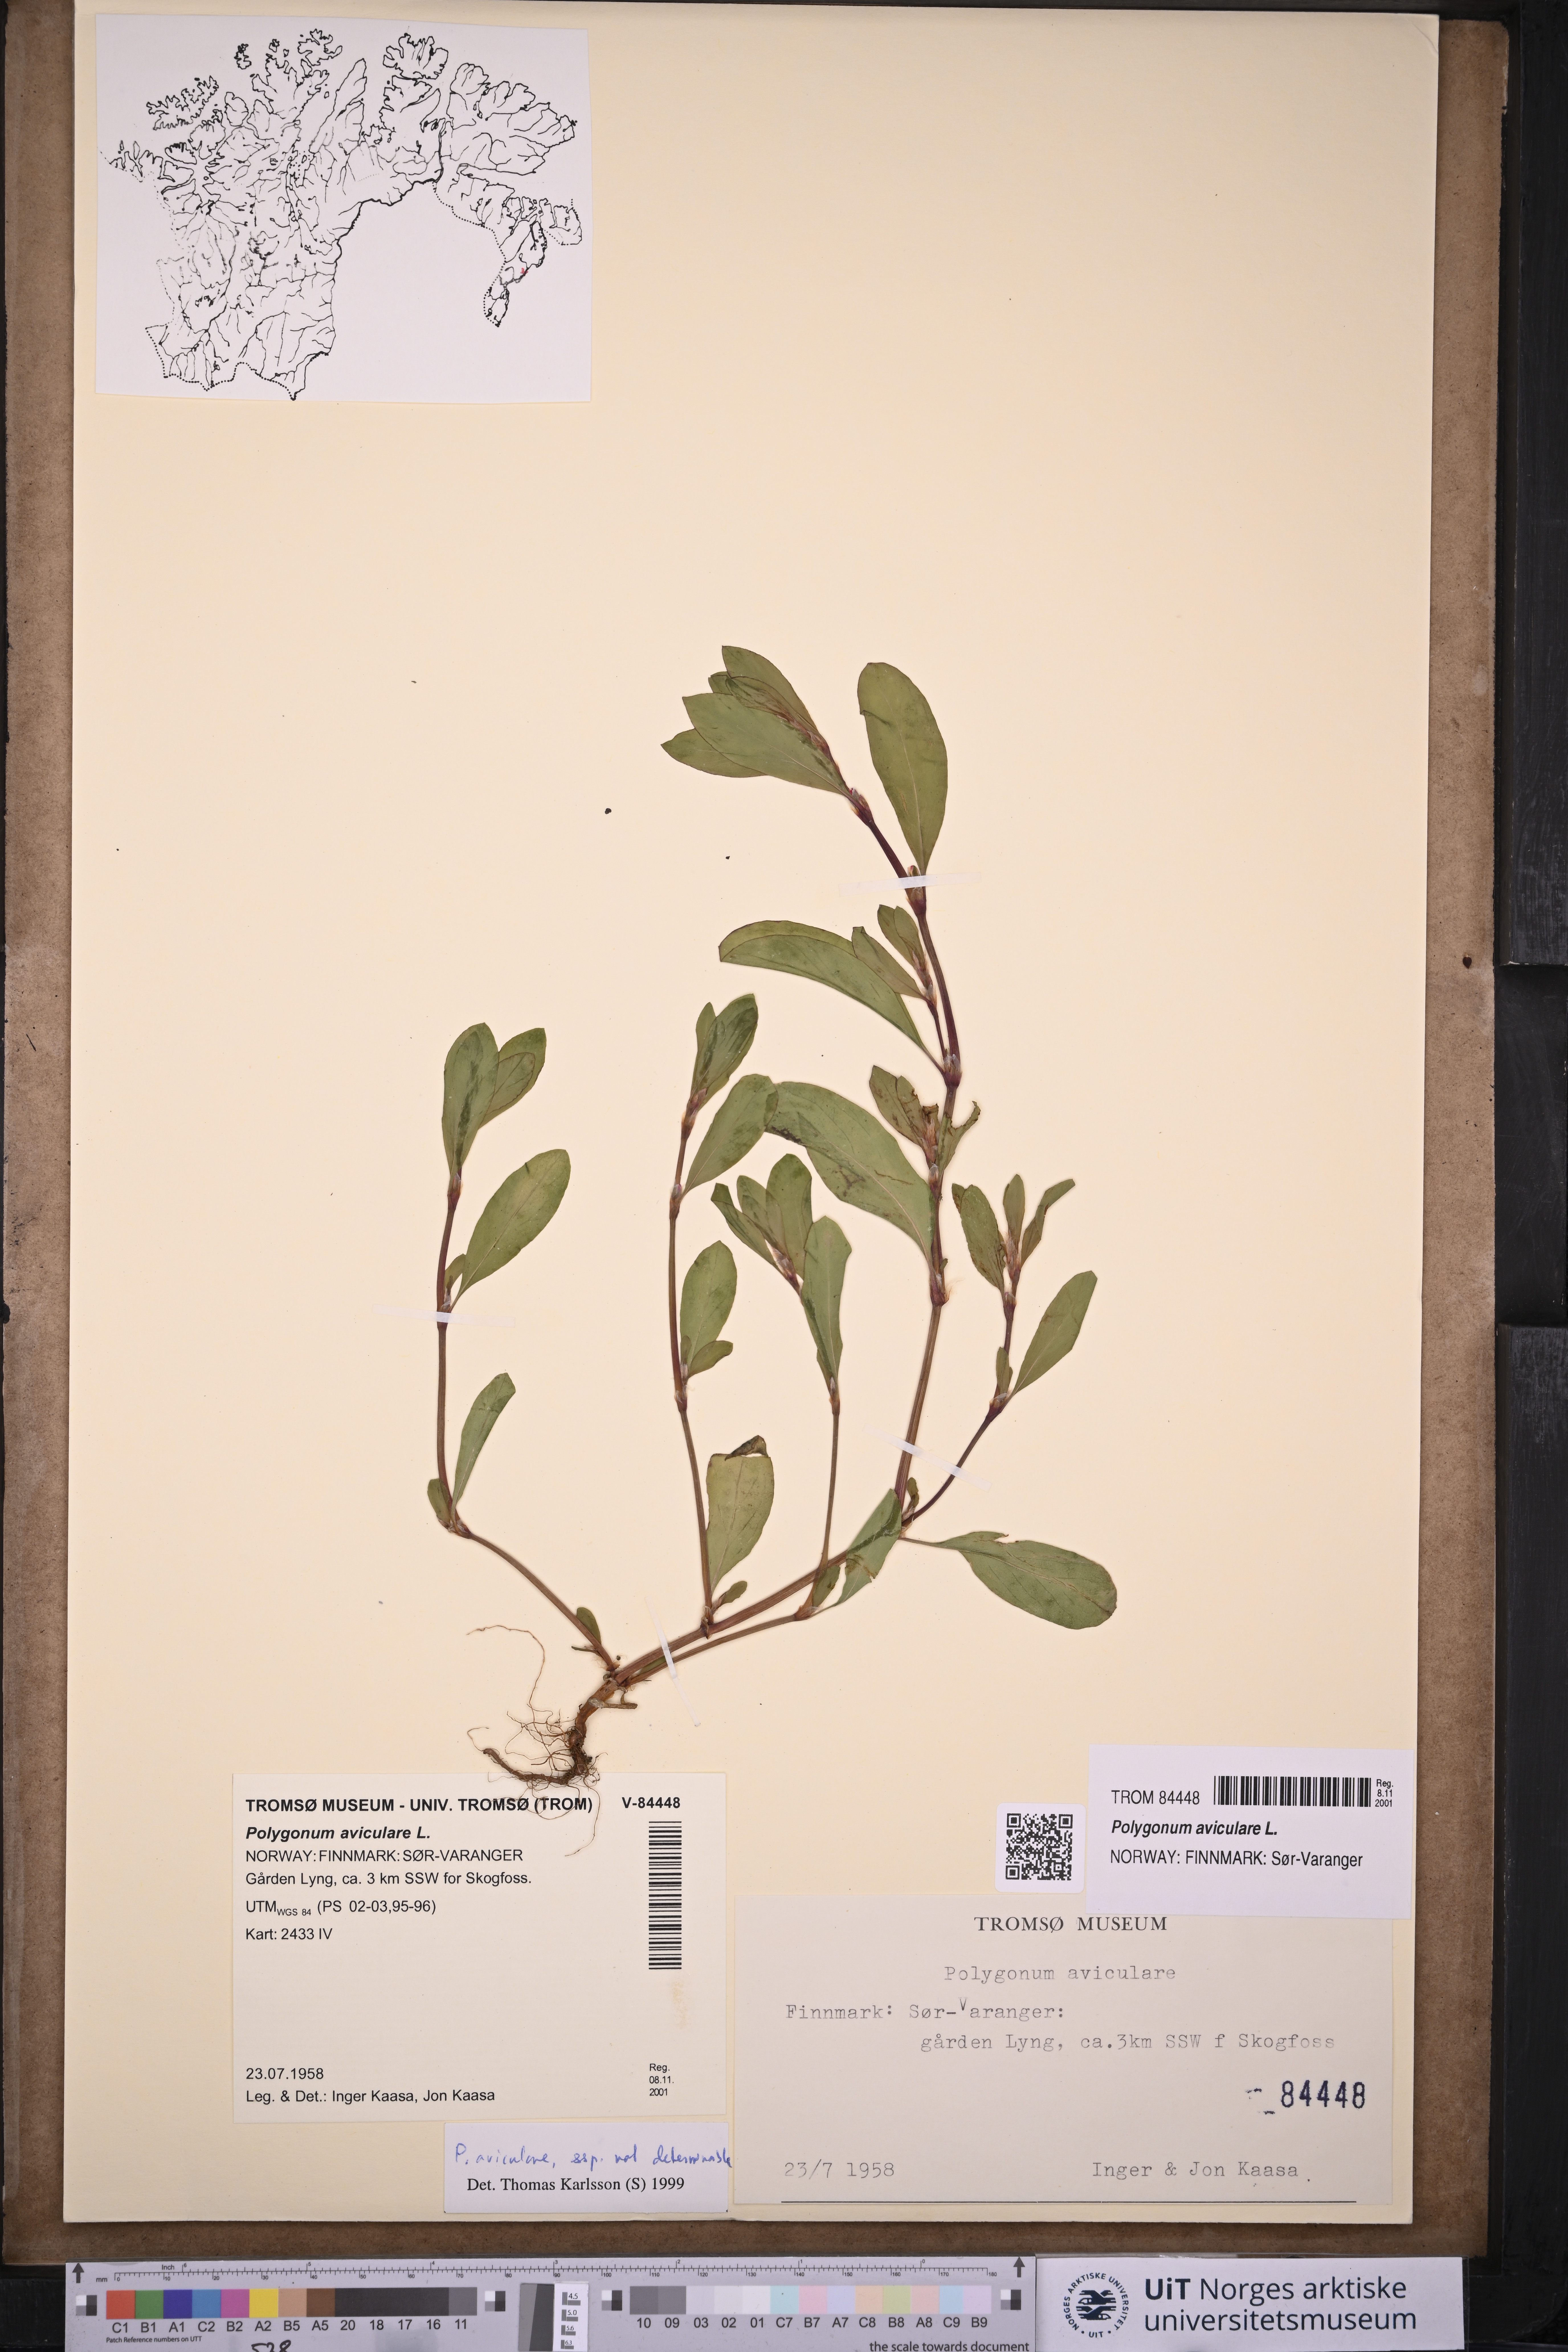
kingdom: Plantae
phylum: Tracheophyta
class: Magnoliopsida
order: Caryophyllales
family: Polygonaceae
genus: Polygonum
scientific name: Polygonum aviculare
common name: Prostrate knotweed
